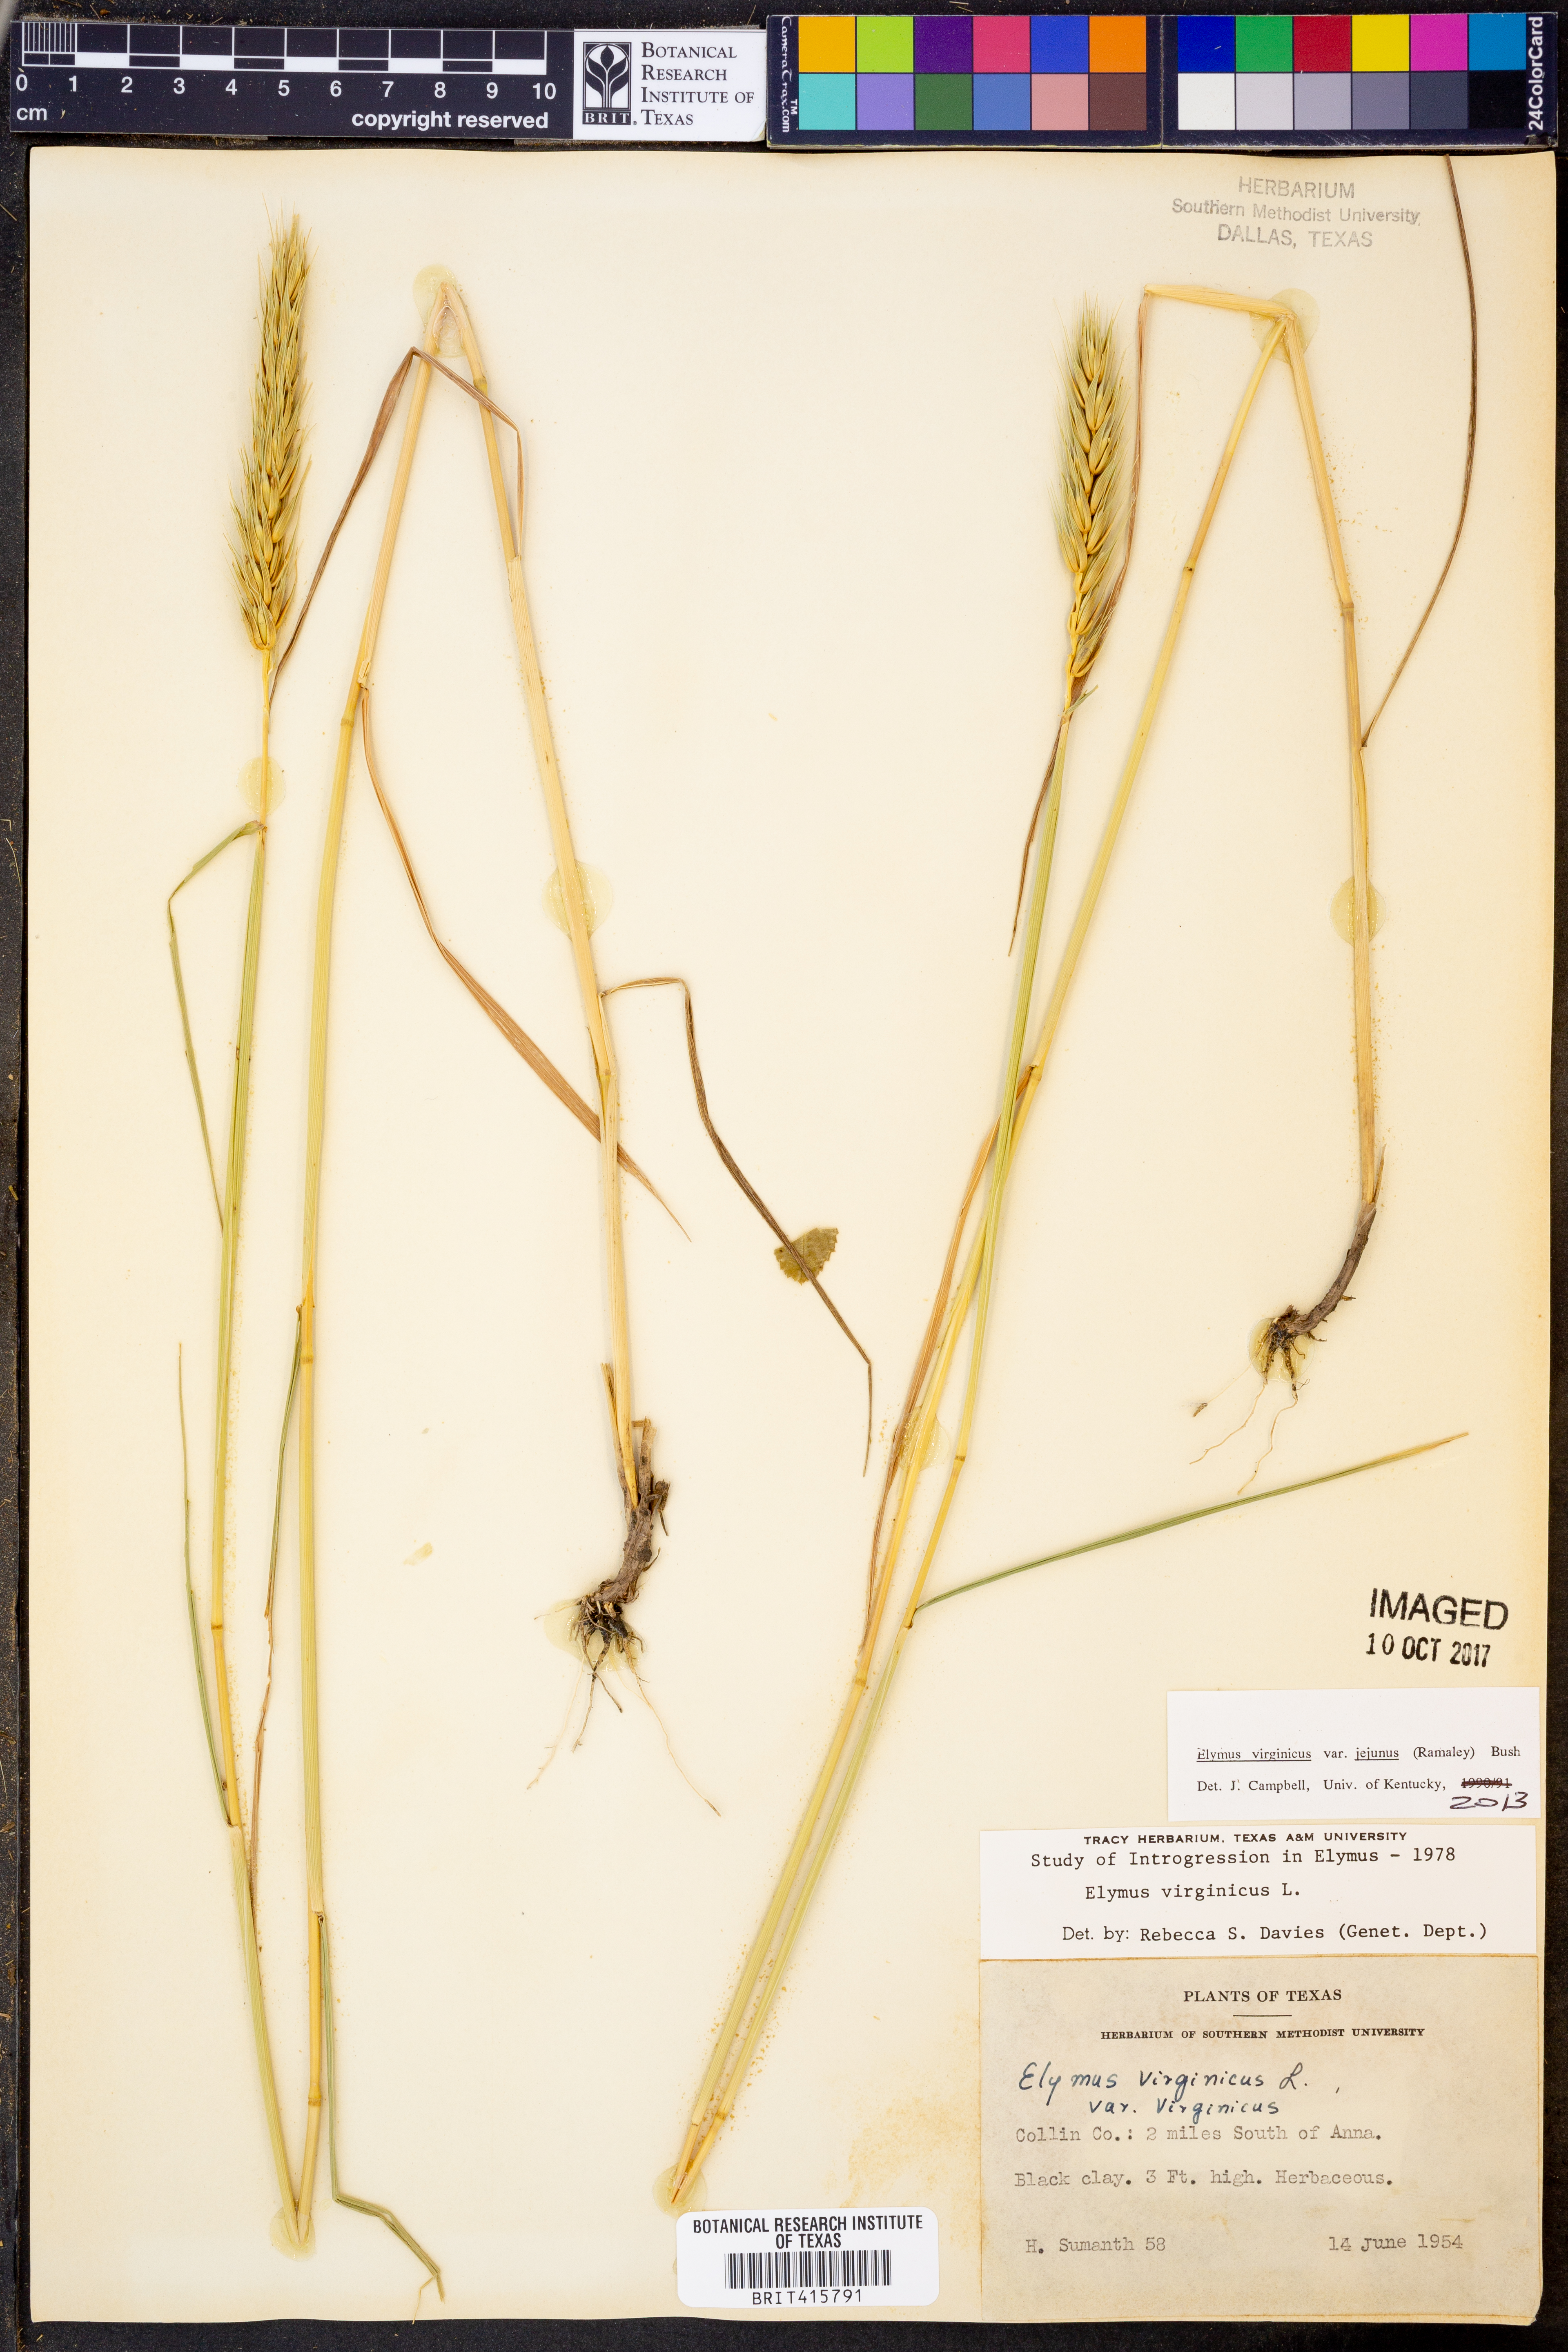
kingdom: Plantae
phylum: Tracheophyta
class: Liliopsida
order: Poales
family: Poaceae
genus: Elymus
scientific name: Elymus virginicus
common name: Common eastern wildrye
